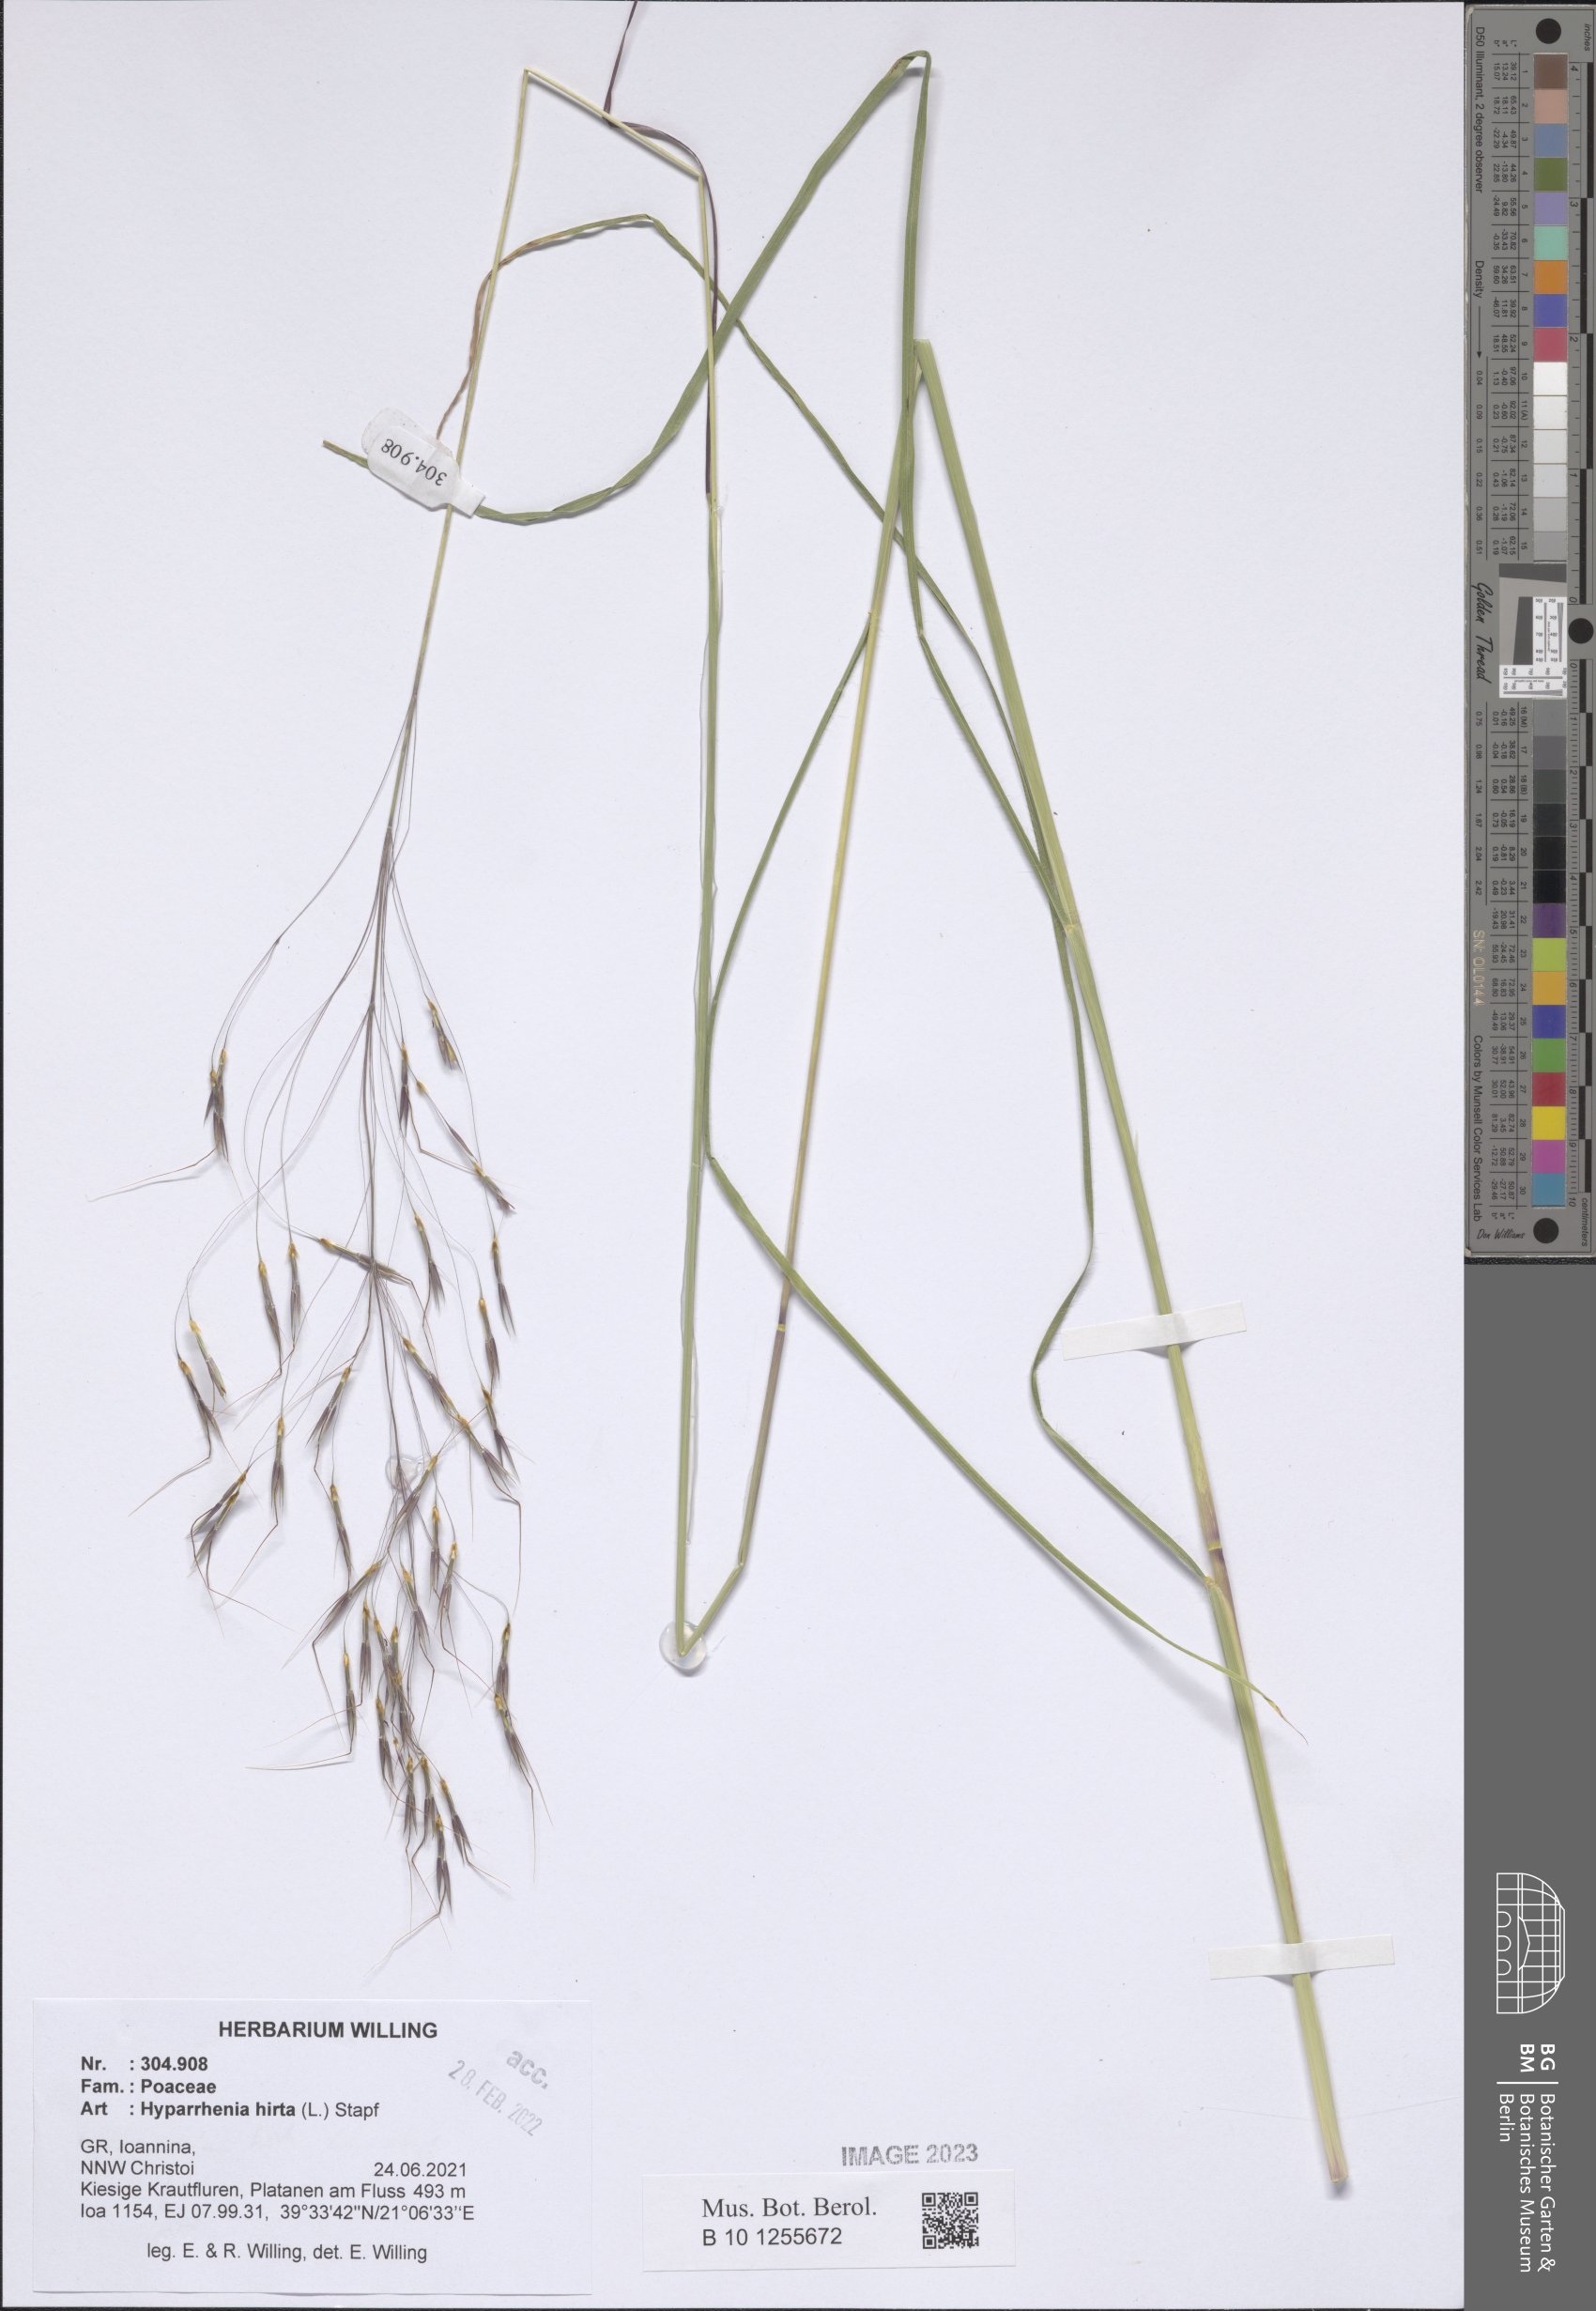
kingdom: Plantae
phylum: Tracheophyta
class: Liliopsida
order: Poales
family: Poaceae
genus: Hyparrhenia
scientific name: Hyparrhenia hirta
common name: Thatching grass
